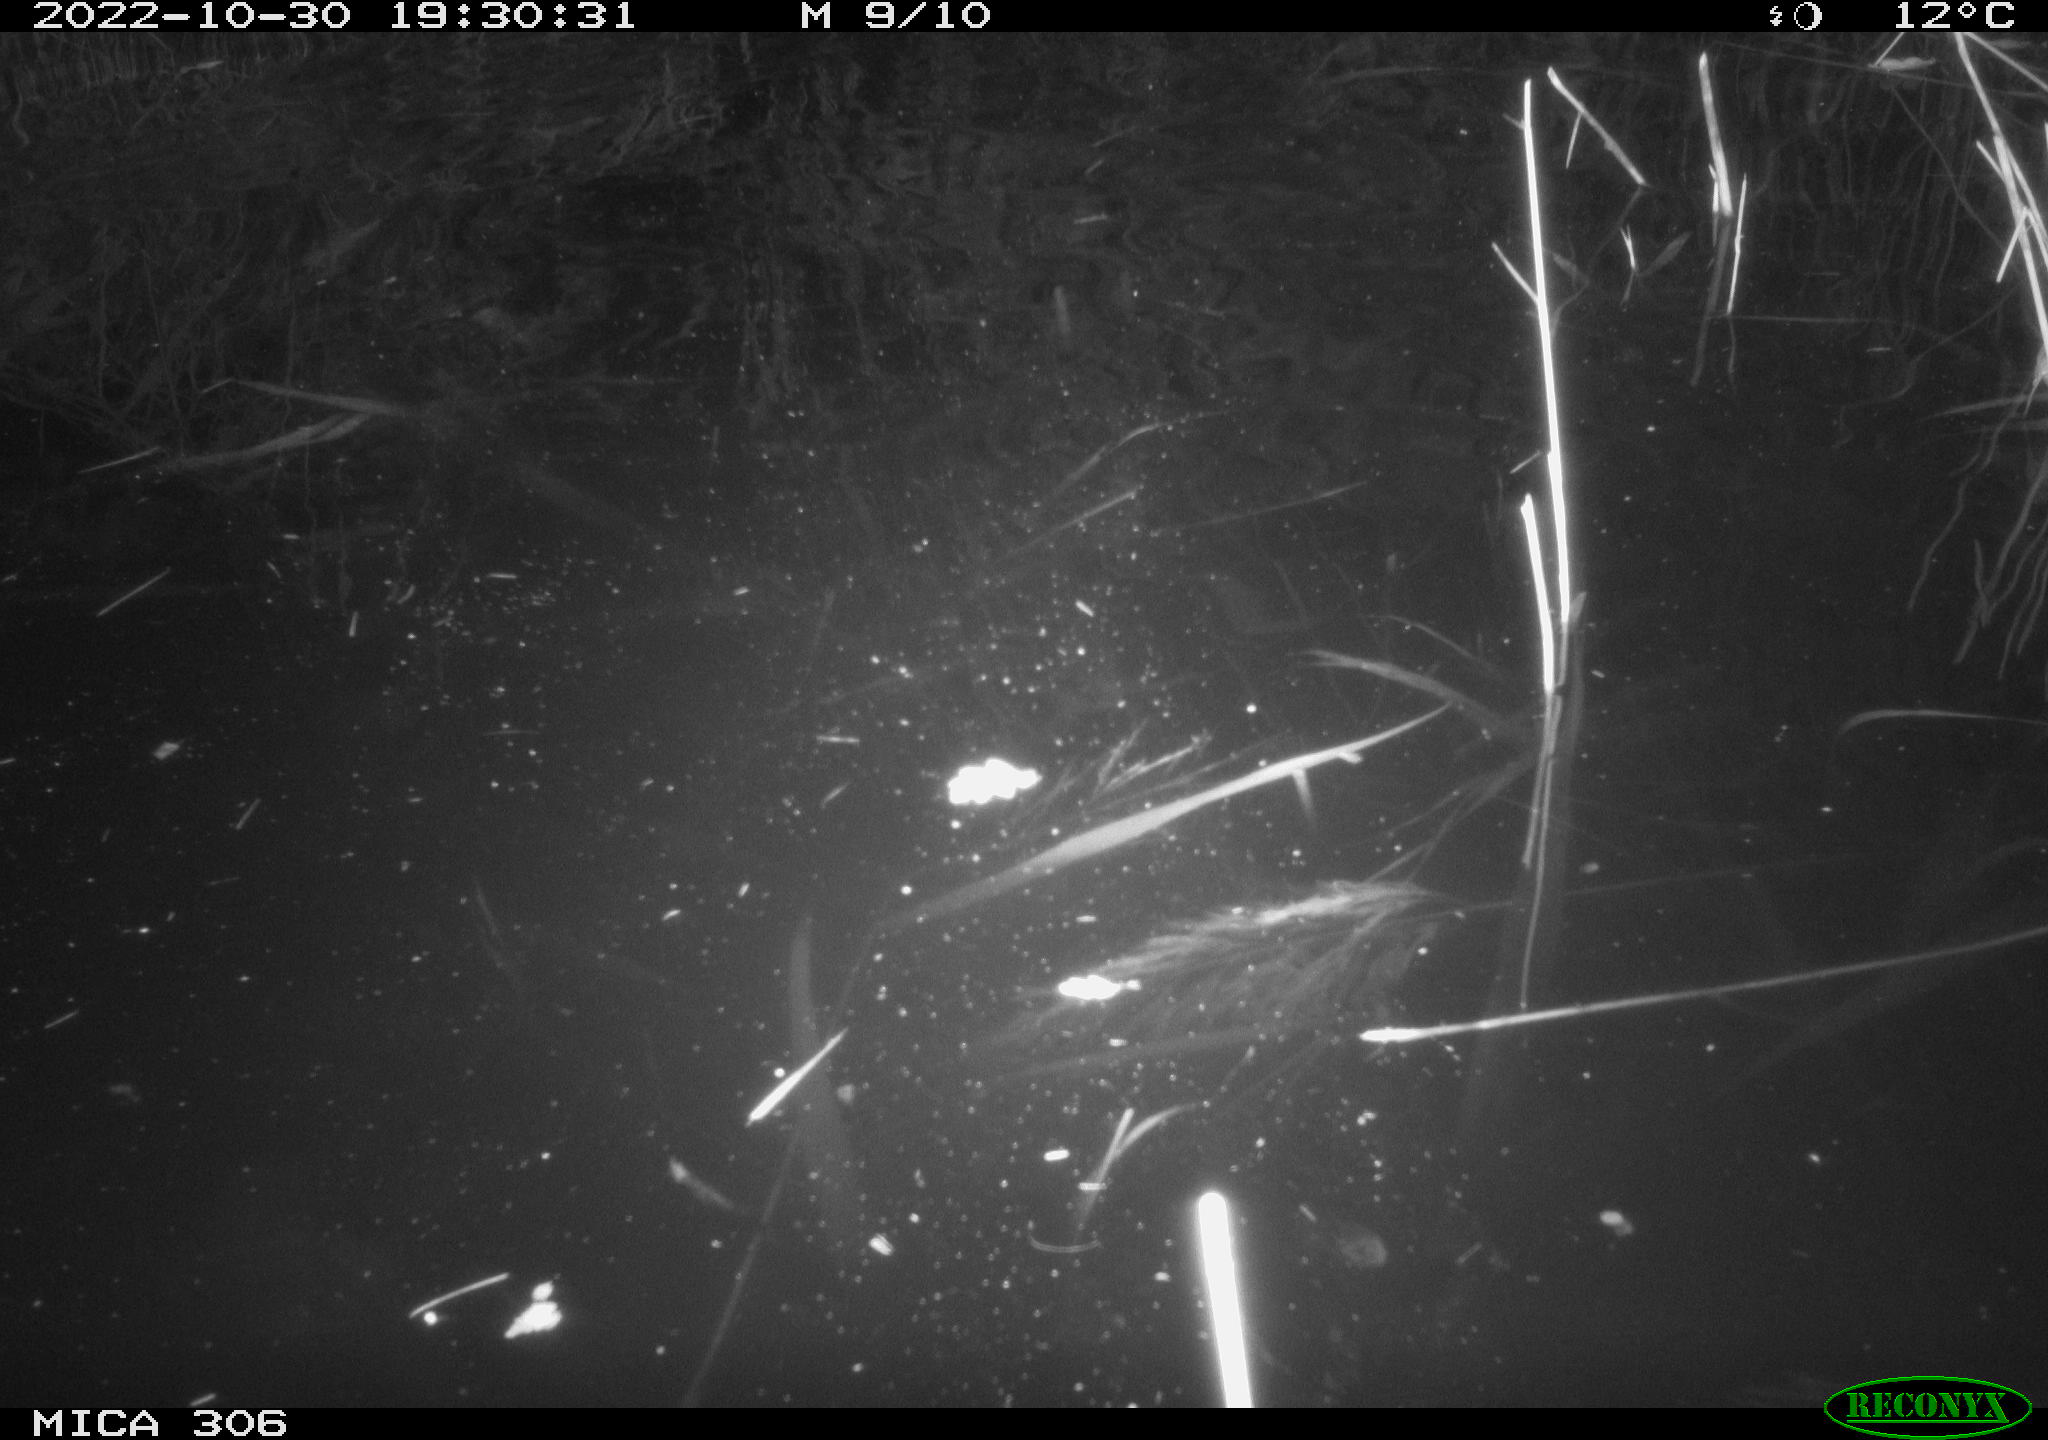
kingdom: Animalia
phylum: Chordata
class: Mammalia
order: Rodentia
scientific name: Rodentia
